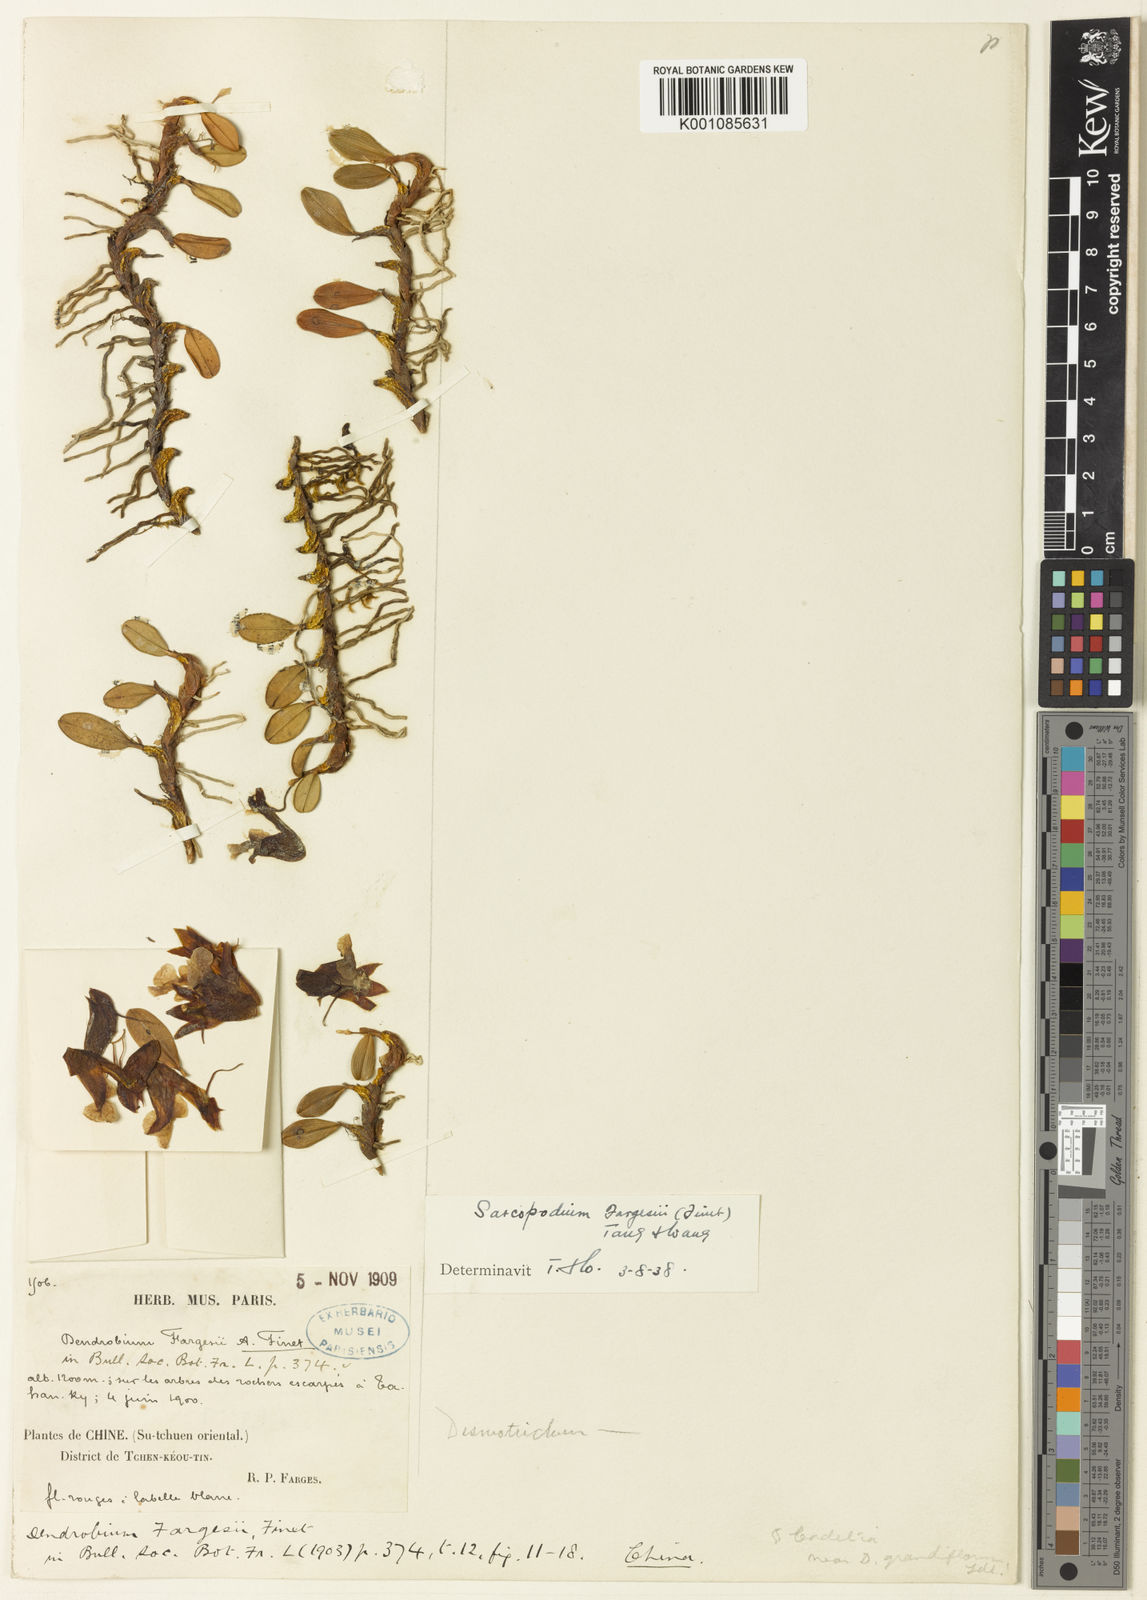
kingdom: Plantae
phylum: Tracheophyta
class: Liliopsida
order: Asparagales
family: Orchidaceae
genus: Dendrobium
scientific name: Dendrobium fargesii
